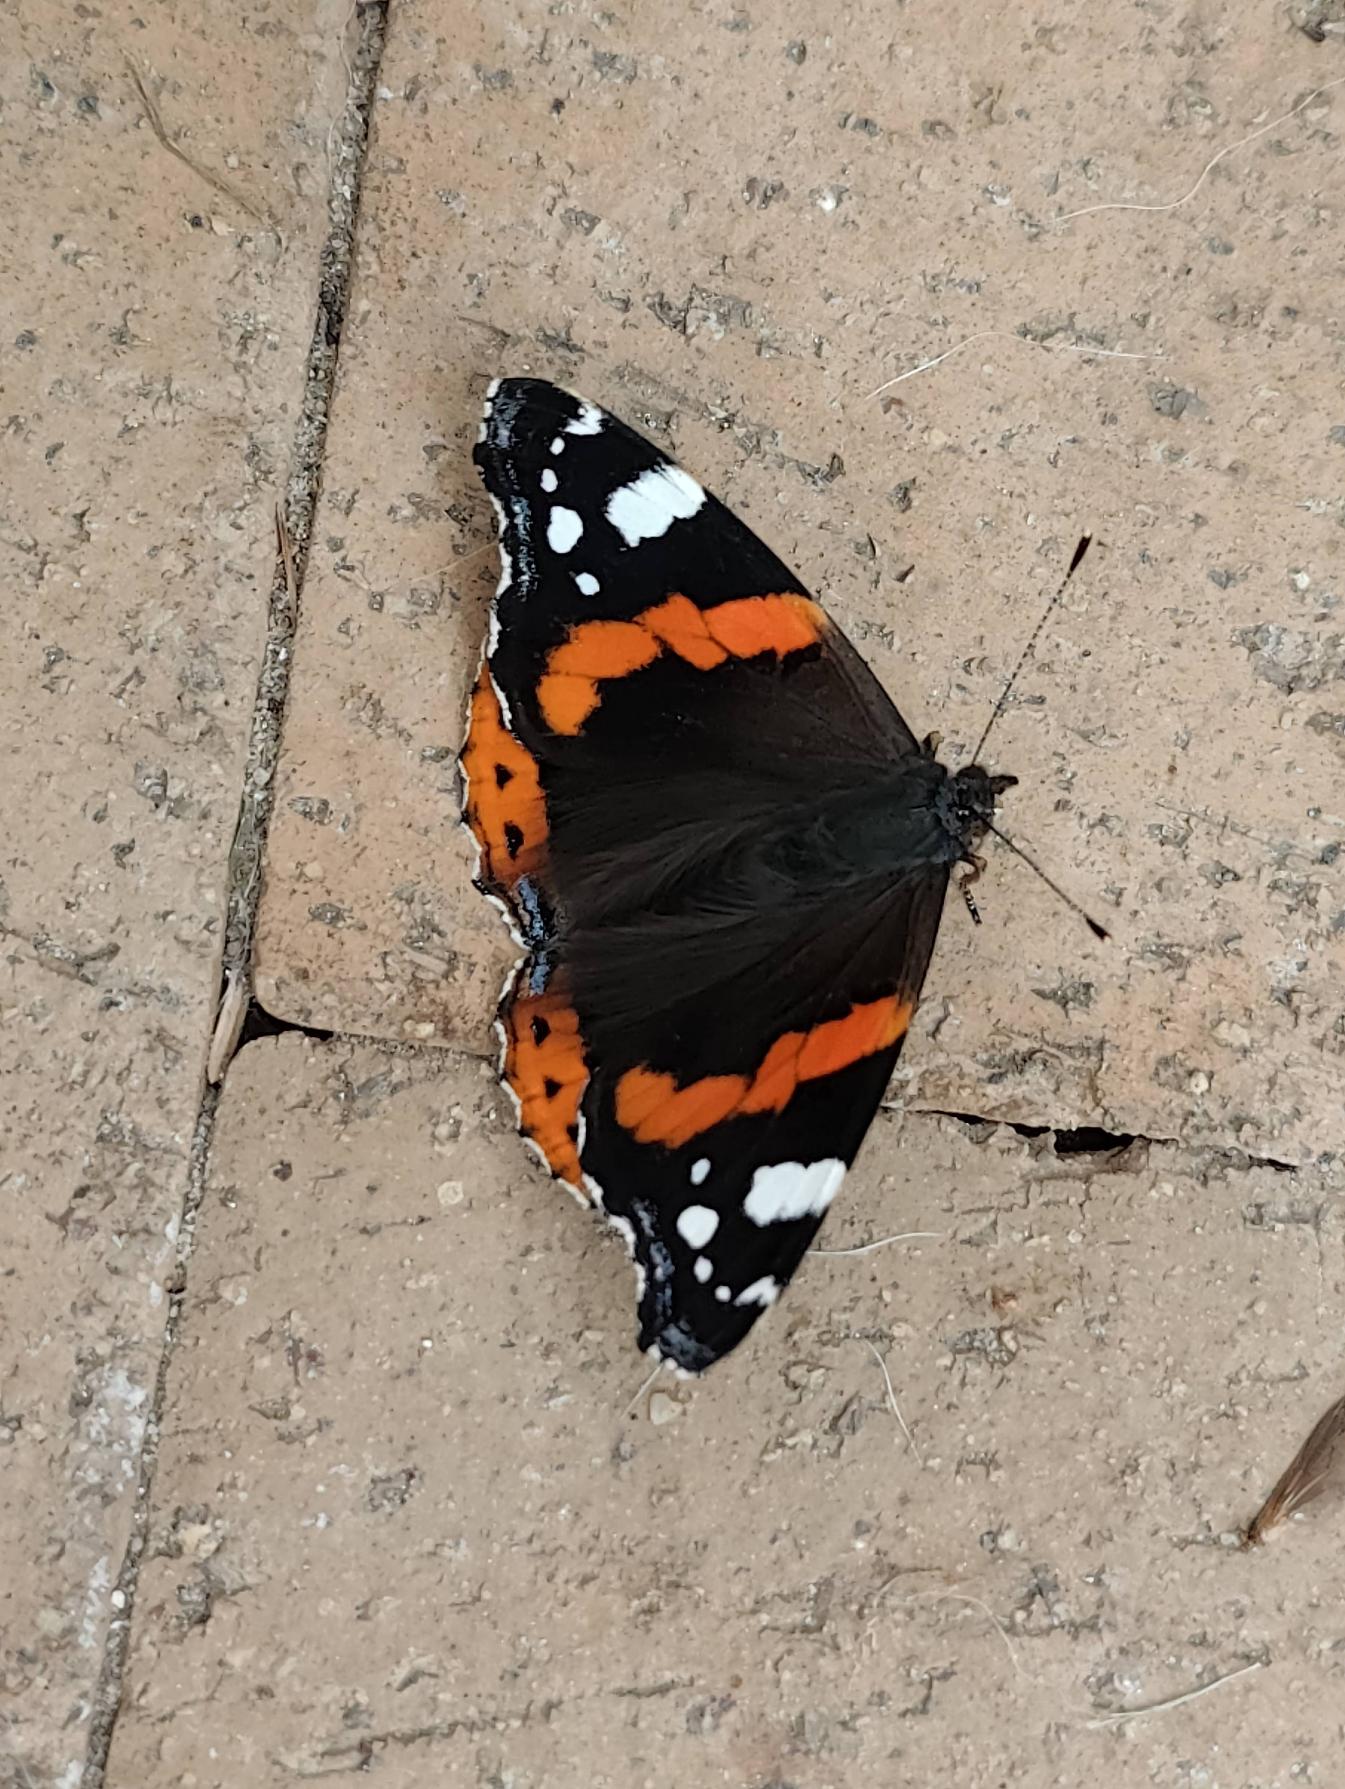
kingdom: Animalia
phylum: Arthropoda
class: Insecta
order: Lepidoptera
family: Nymphalidae
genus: Vanessa
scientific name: Vanessa atalanta
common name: Admiral
